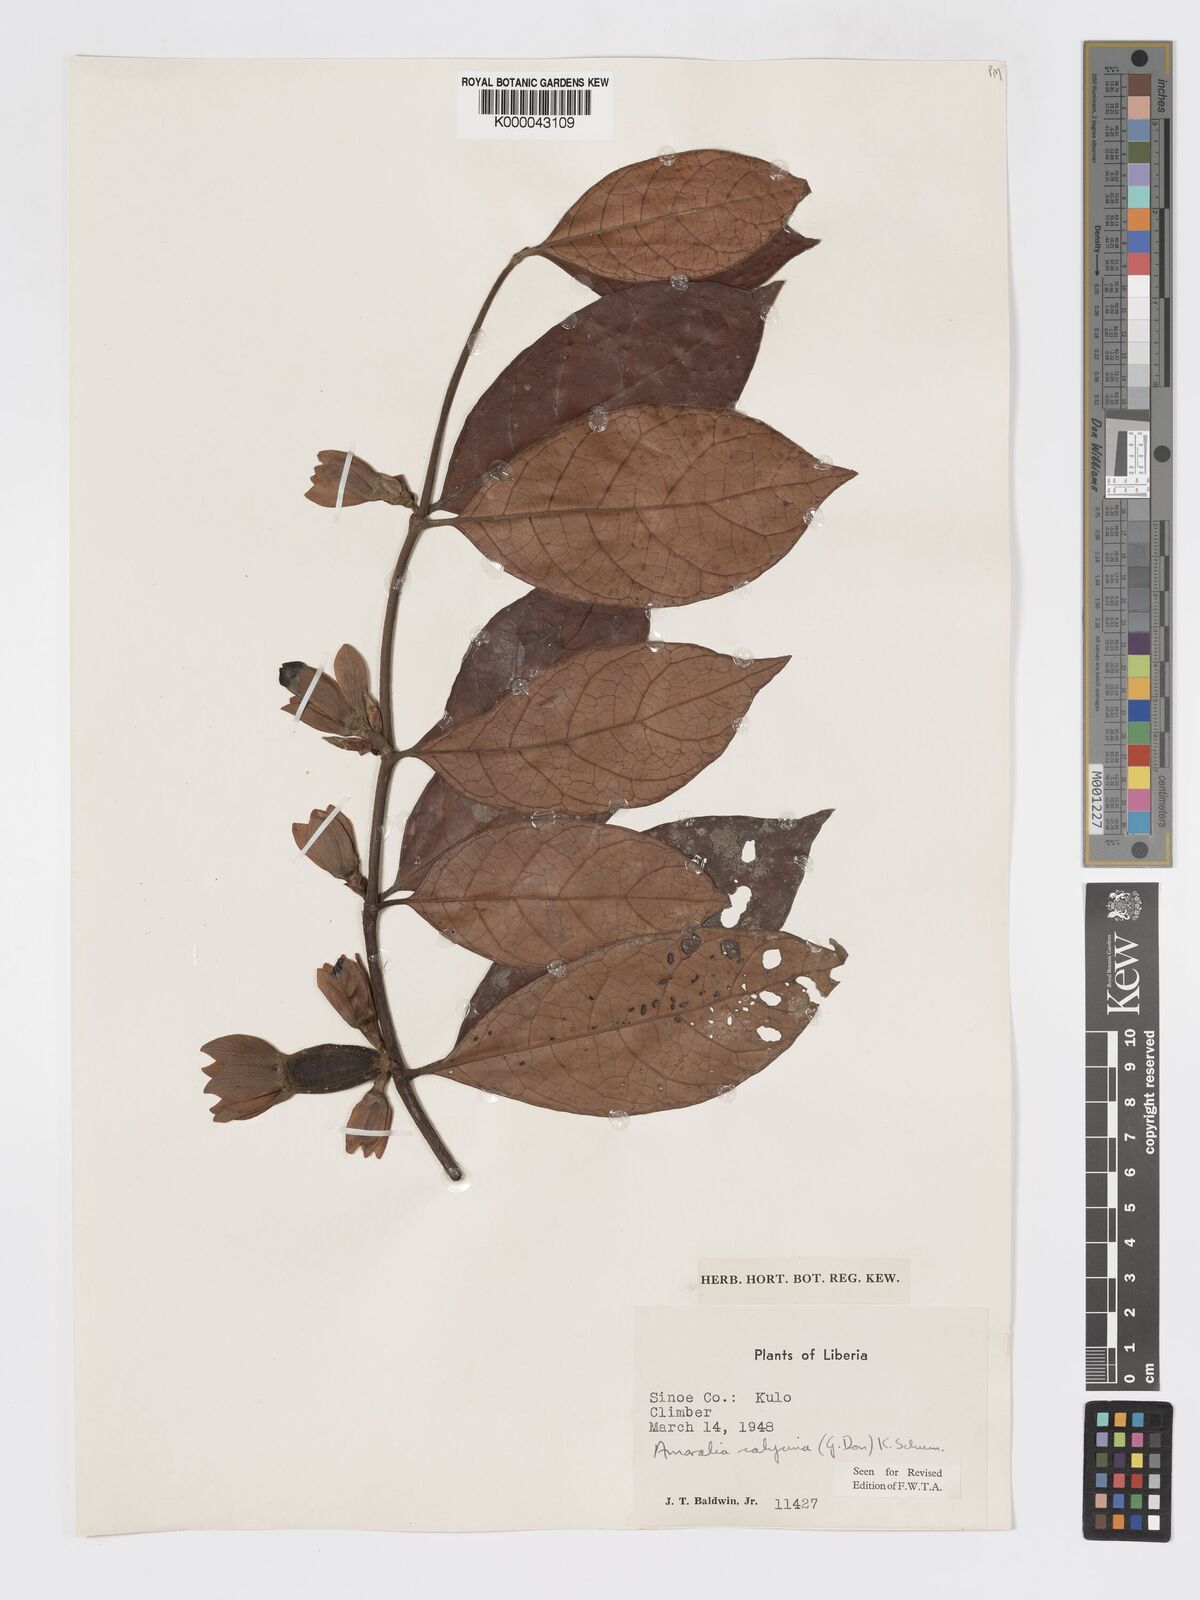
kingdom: Plantae
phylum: Tracheophyta
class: Magnoliopsida
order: Gentianales
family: Rubiaceae
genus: Sherbournia
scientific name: Sherbournia calycina
